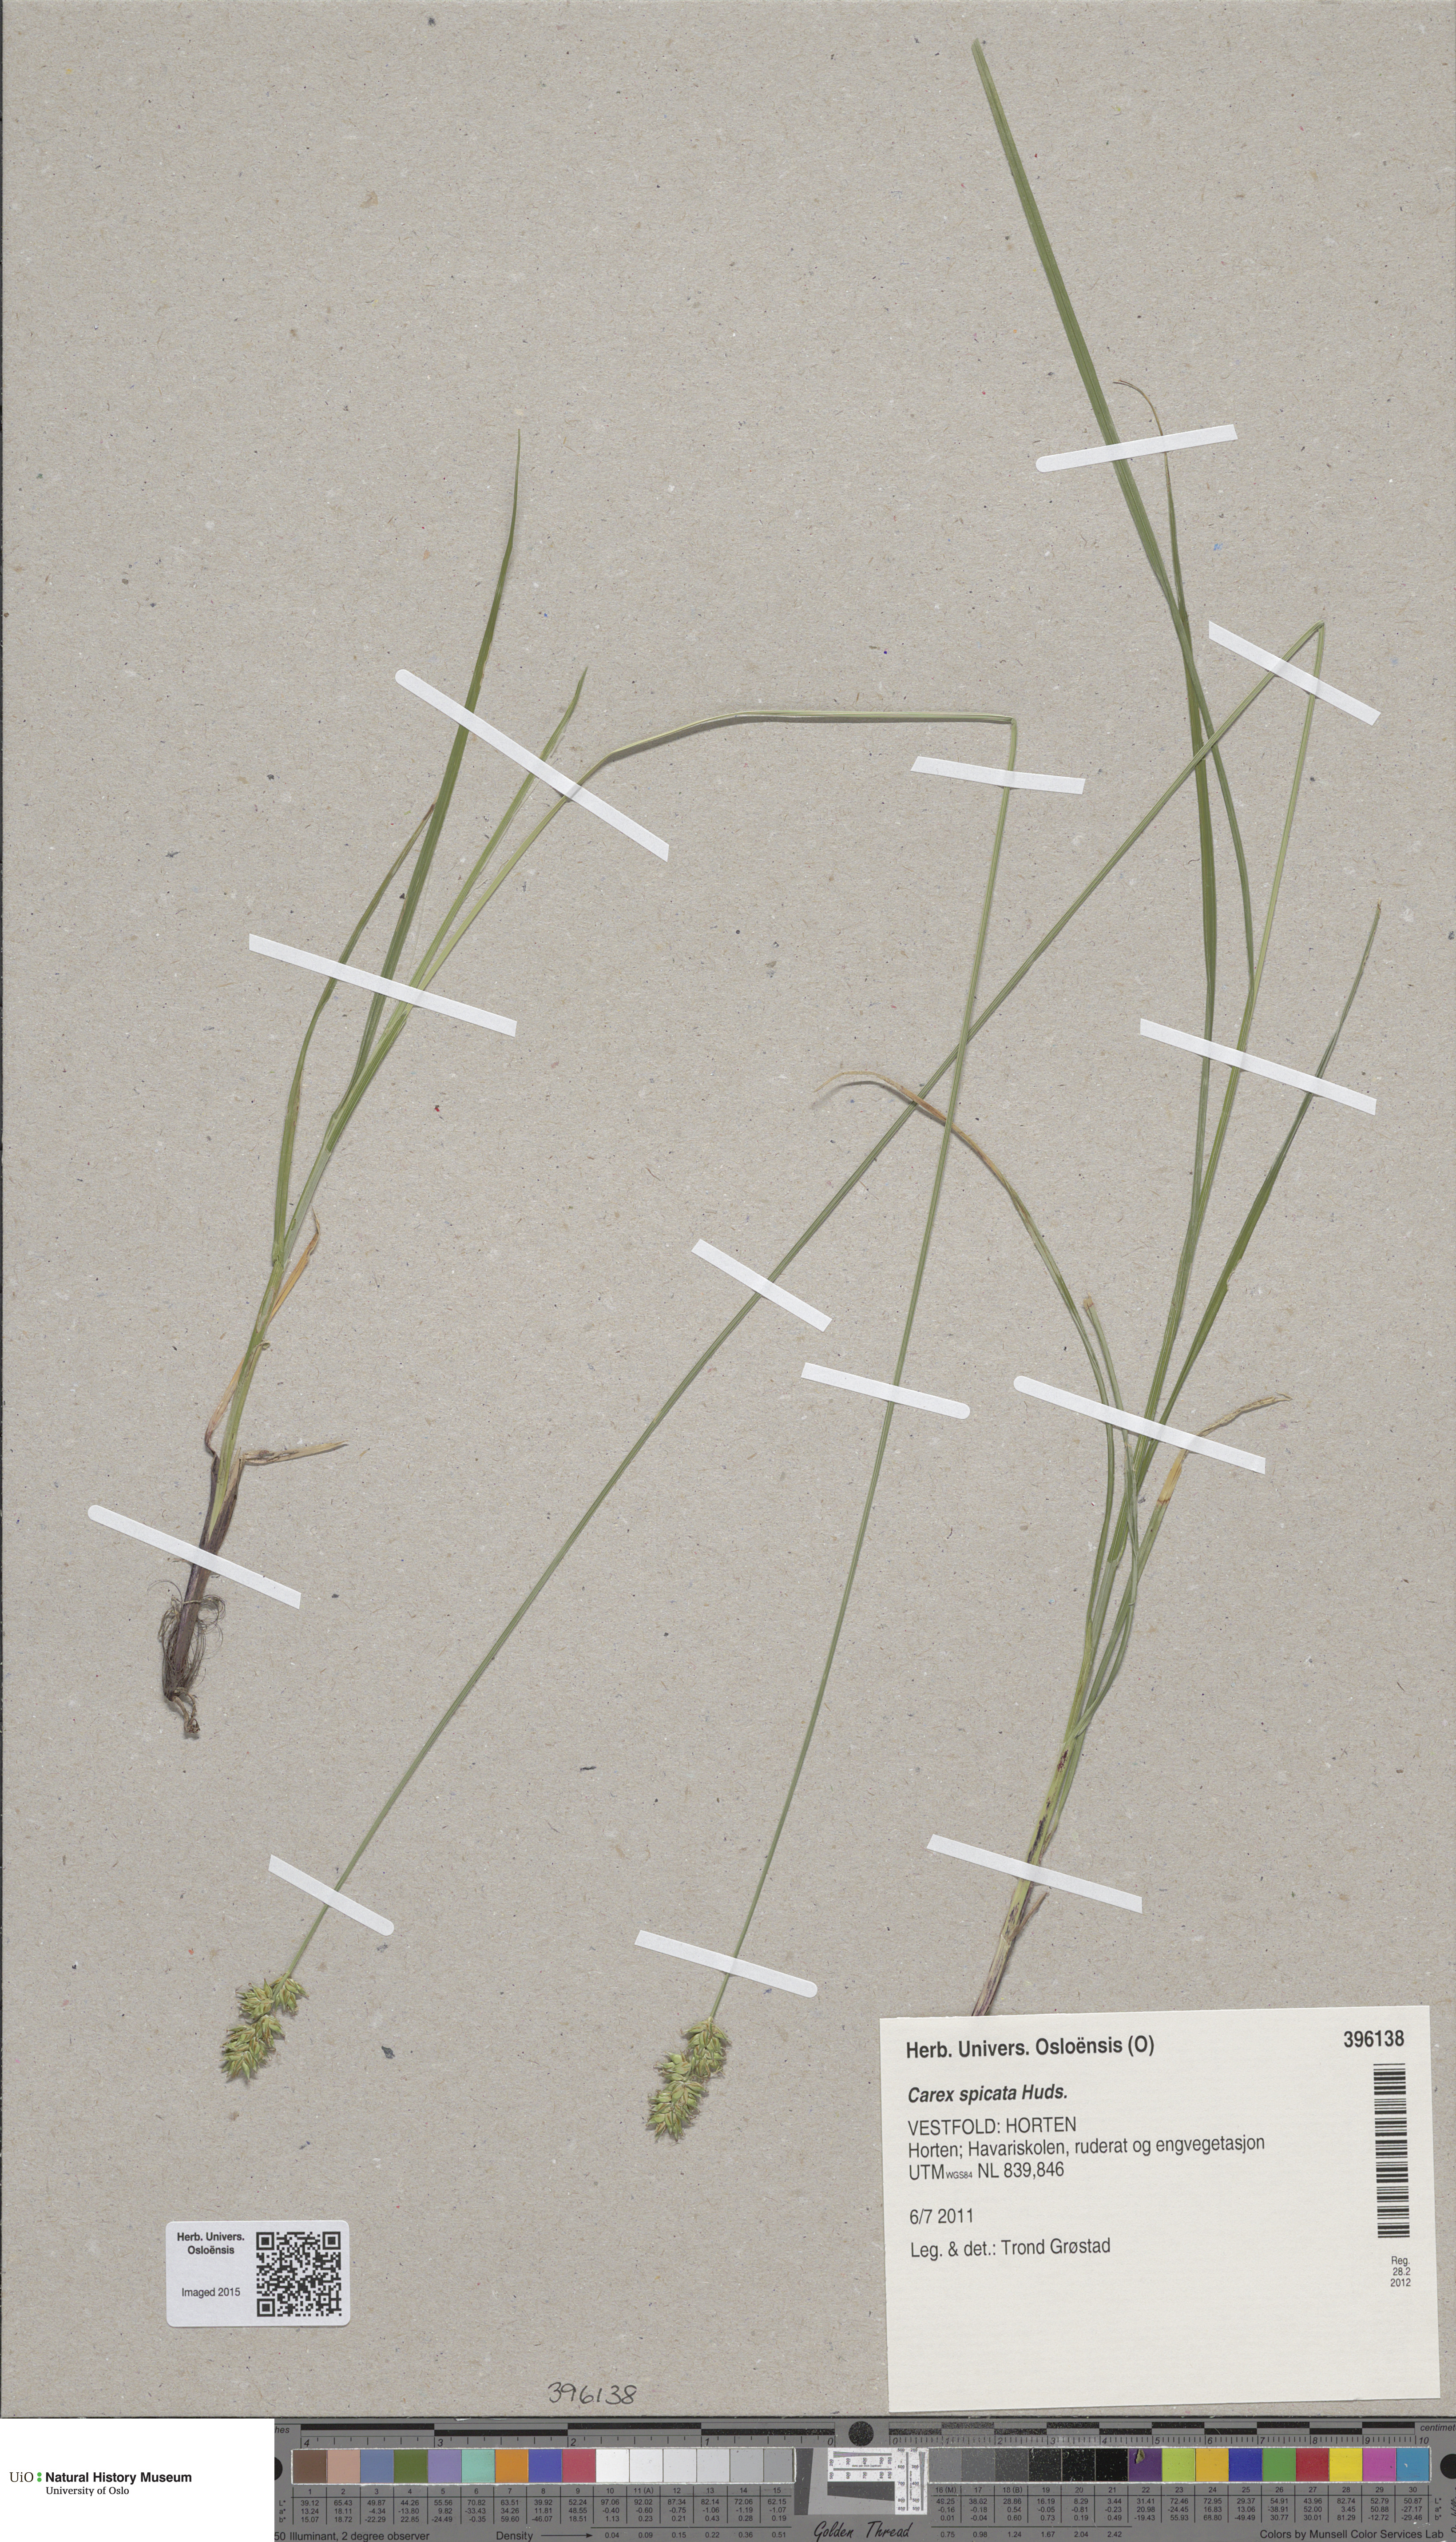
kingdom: Plantae
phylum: Tracheophyta
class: Liliopsida
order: Poales
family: Cyperaceae
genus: Carex
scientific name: Carex spicata
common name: Spiked sedge
